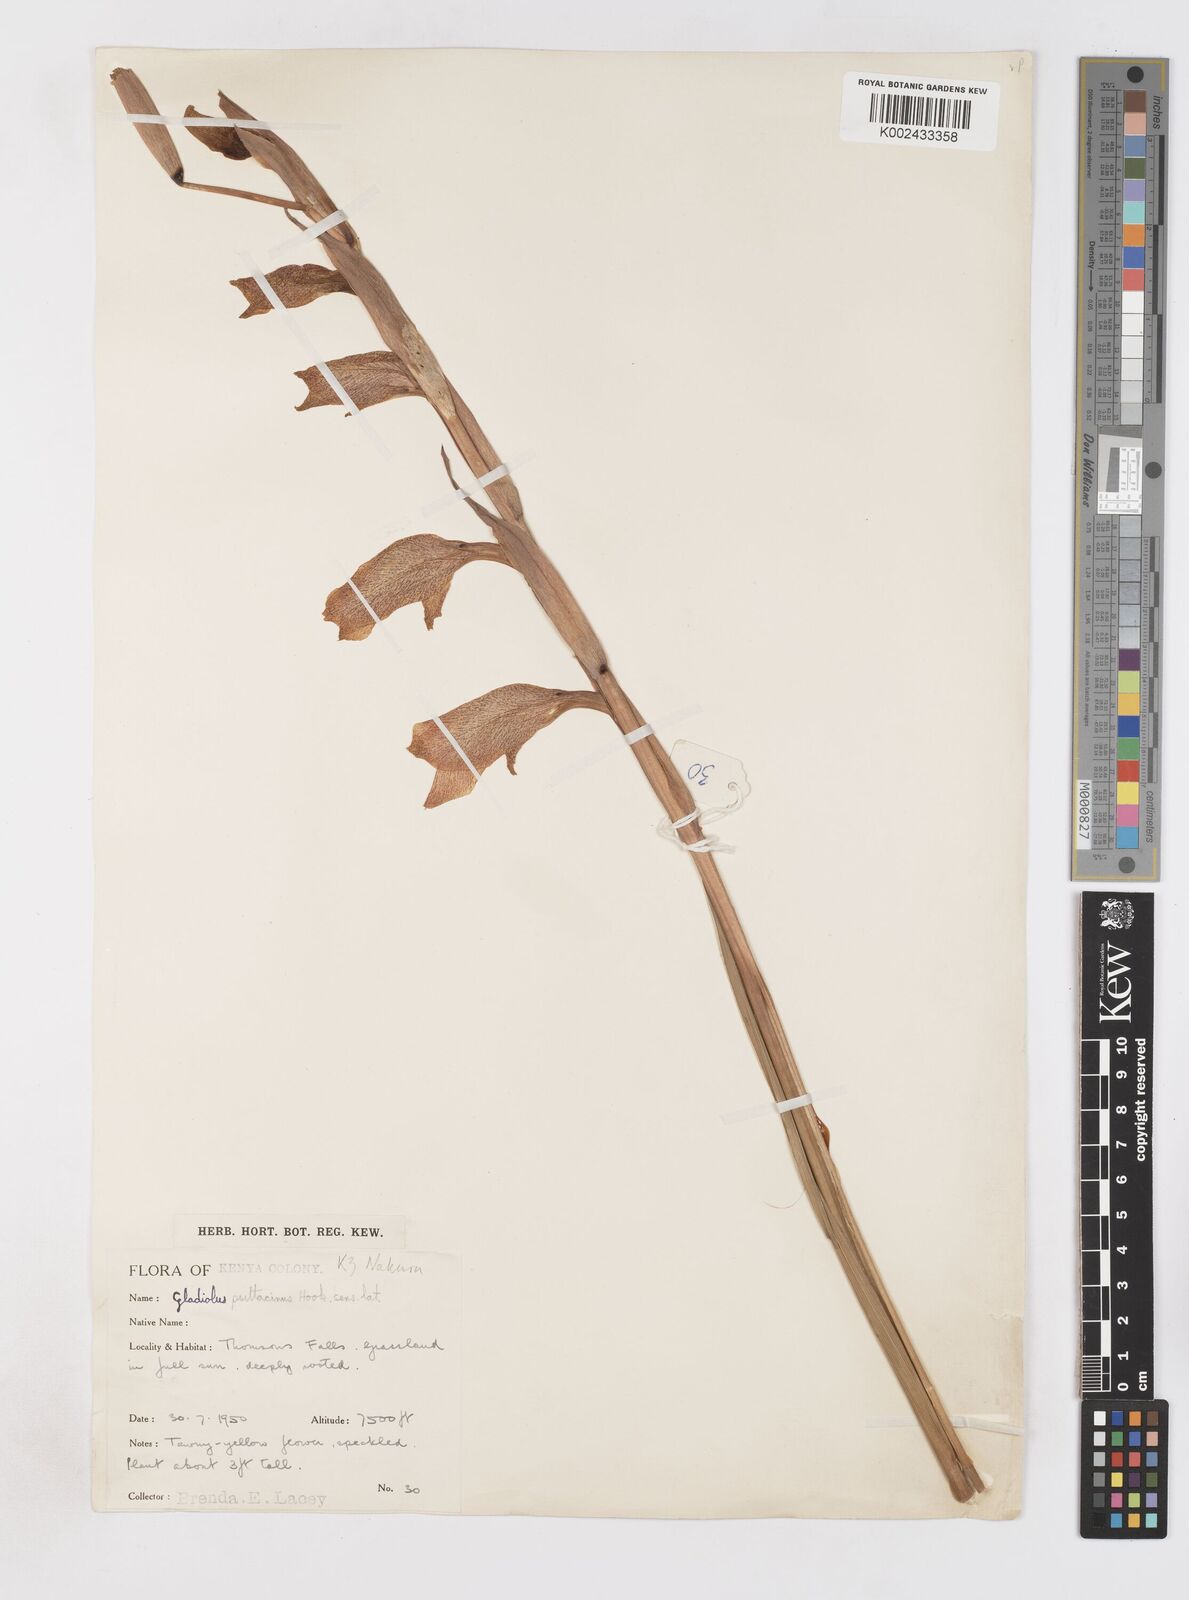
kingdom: Plantae
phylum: Tracheophyta
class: Liliopsida
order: Asparagales
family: Iridaceae
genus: Gladiolus
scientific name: Gladiolus dalenii
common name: Cornflag
